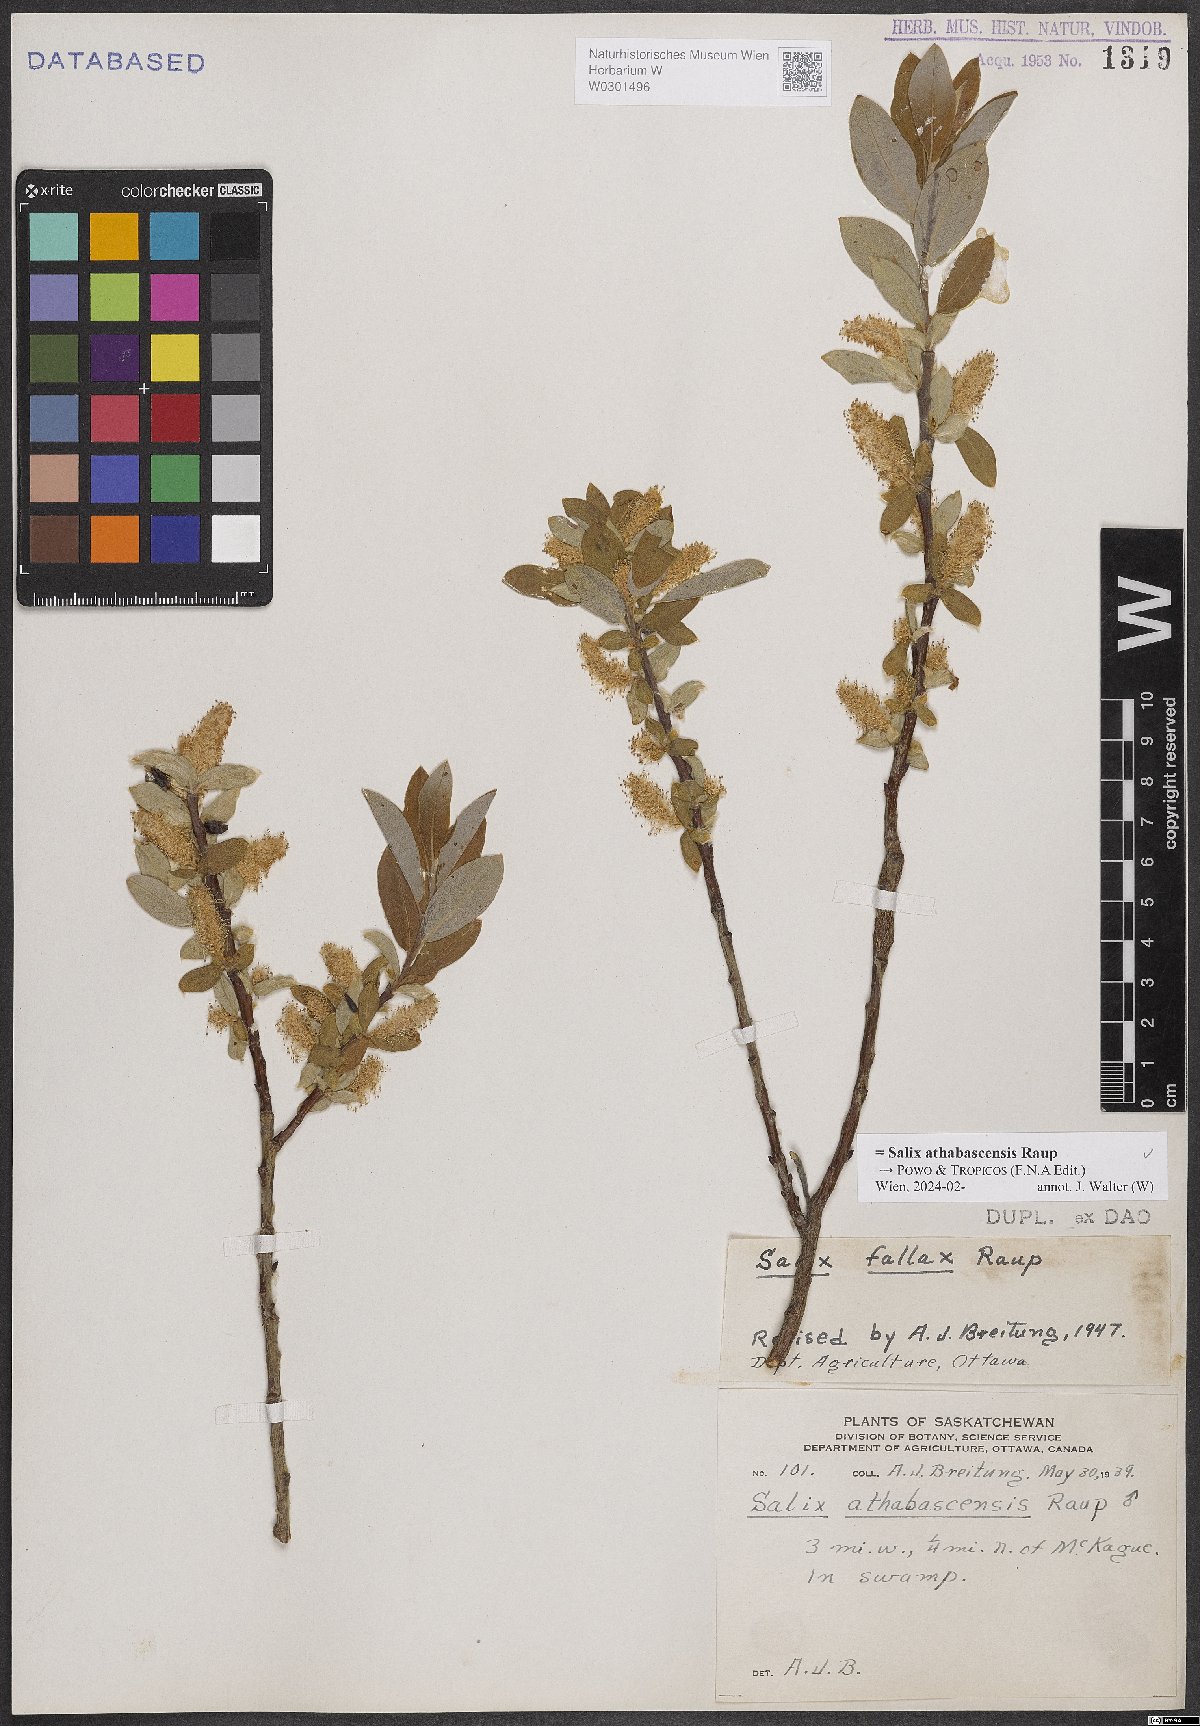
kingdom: Plantae
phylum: Tracheophyta
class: Magnoliopsida
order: Malpighiales
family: Salicaceae
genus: Salix
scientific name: Salix athabascensis
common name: Athabasca willow
